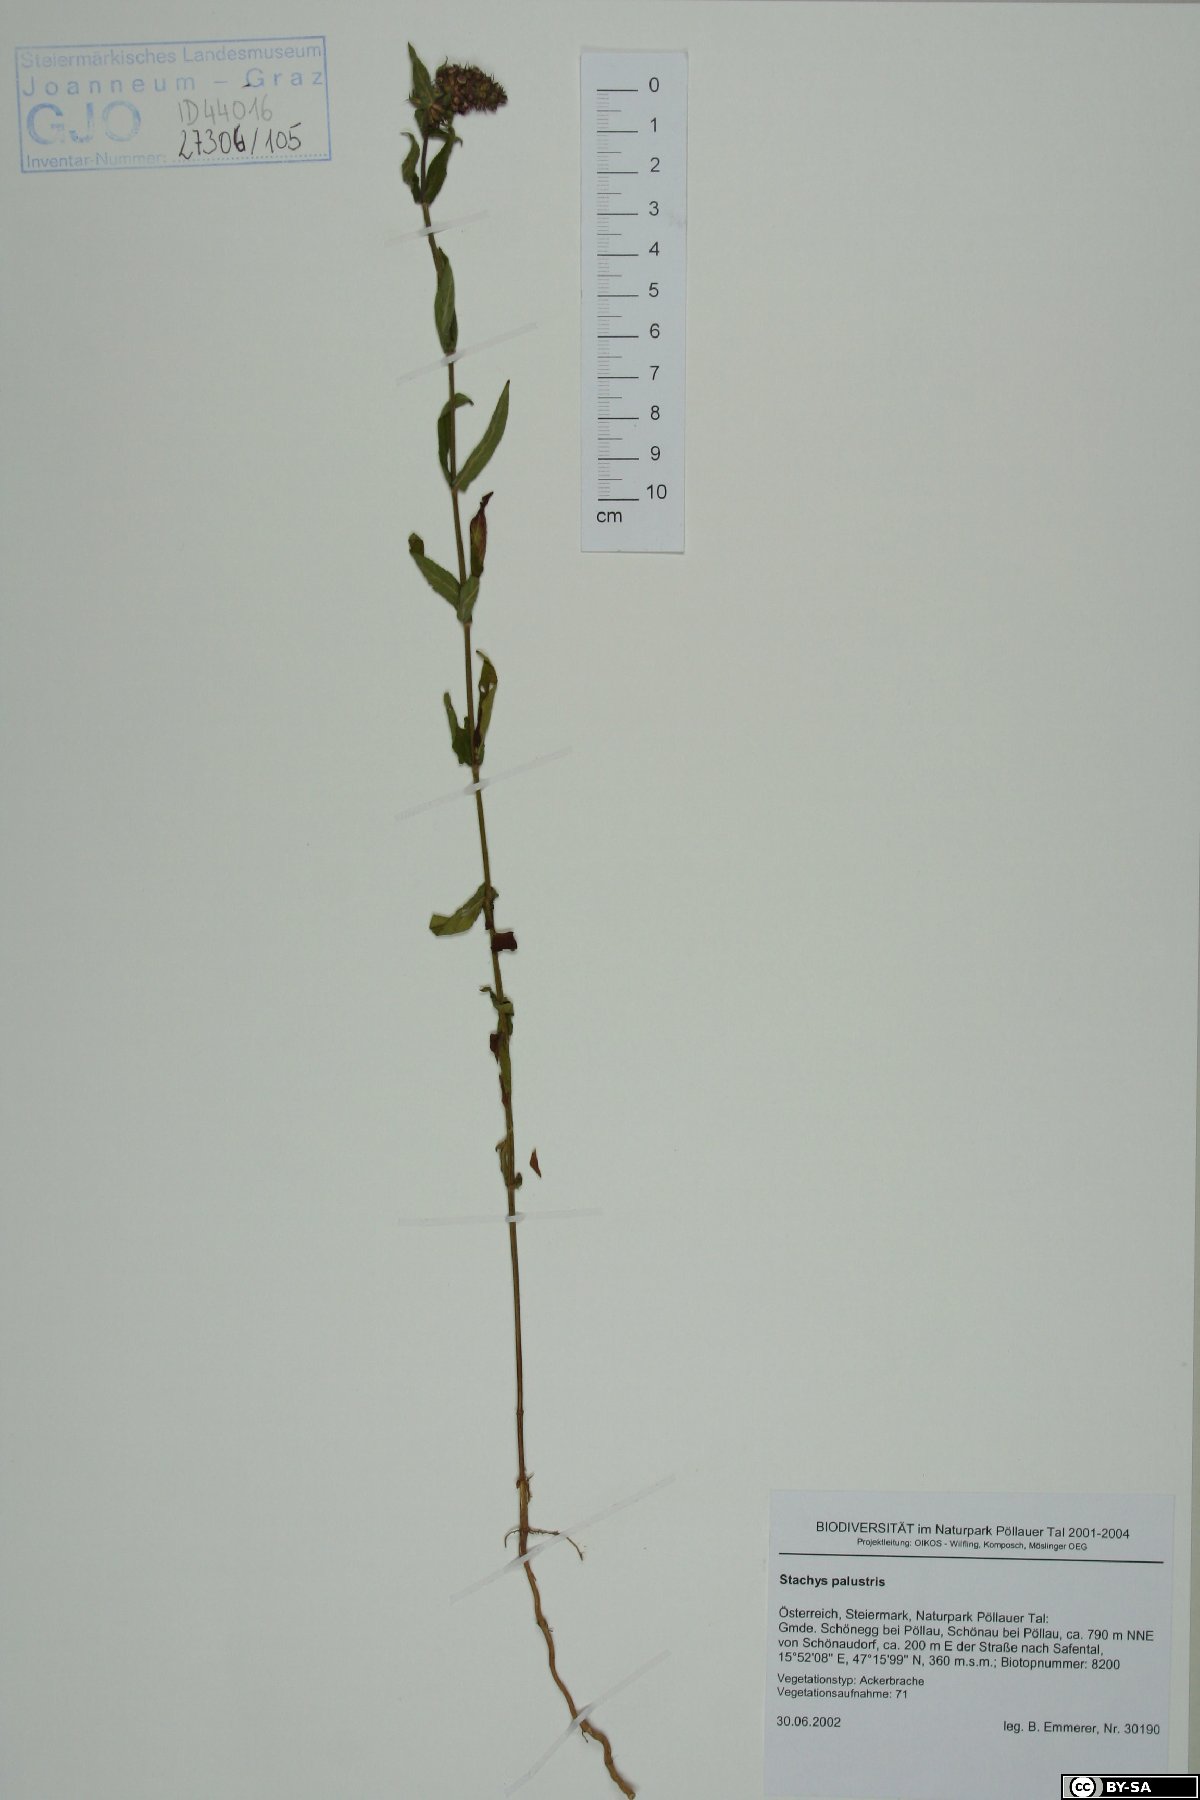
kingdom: Plantae
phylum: Tracheophyta
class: Magnoliopsida
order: Lamiales
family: Lamiaceae
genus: Stachys
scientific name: Stachys palustris
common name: Marsh woundwort
